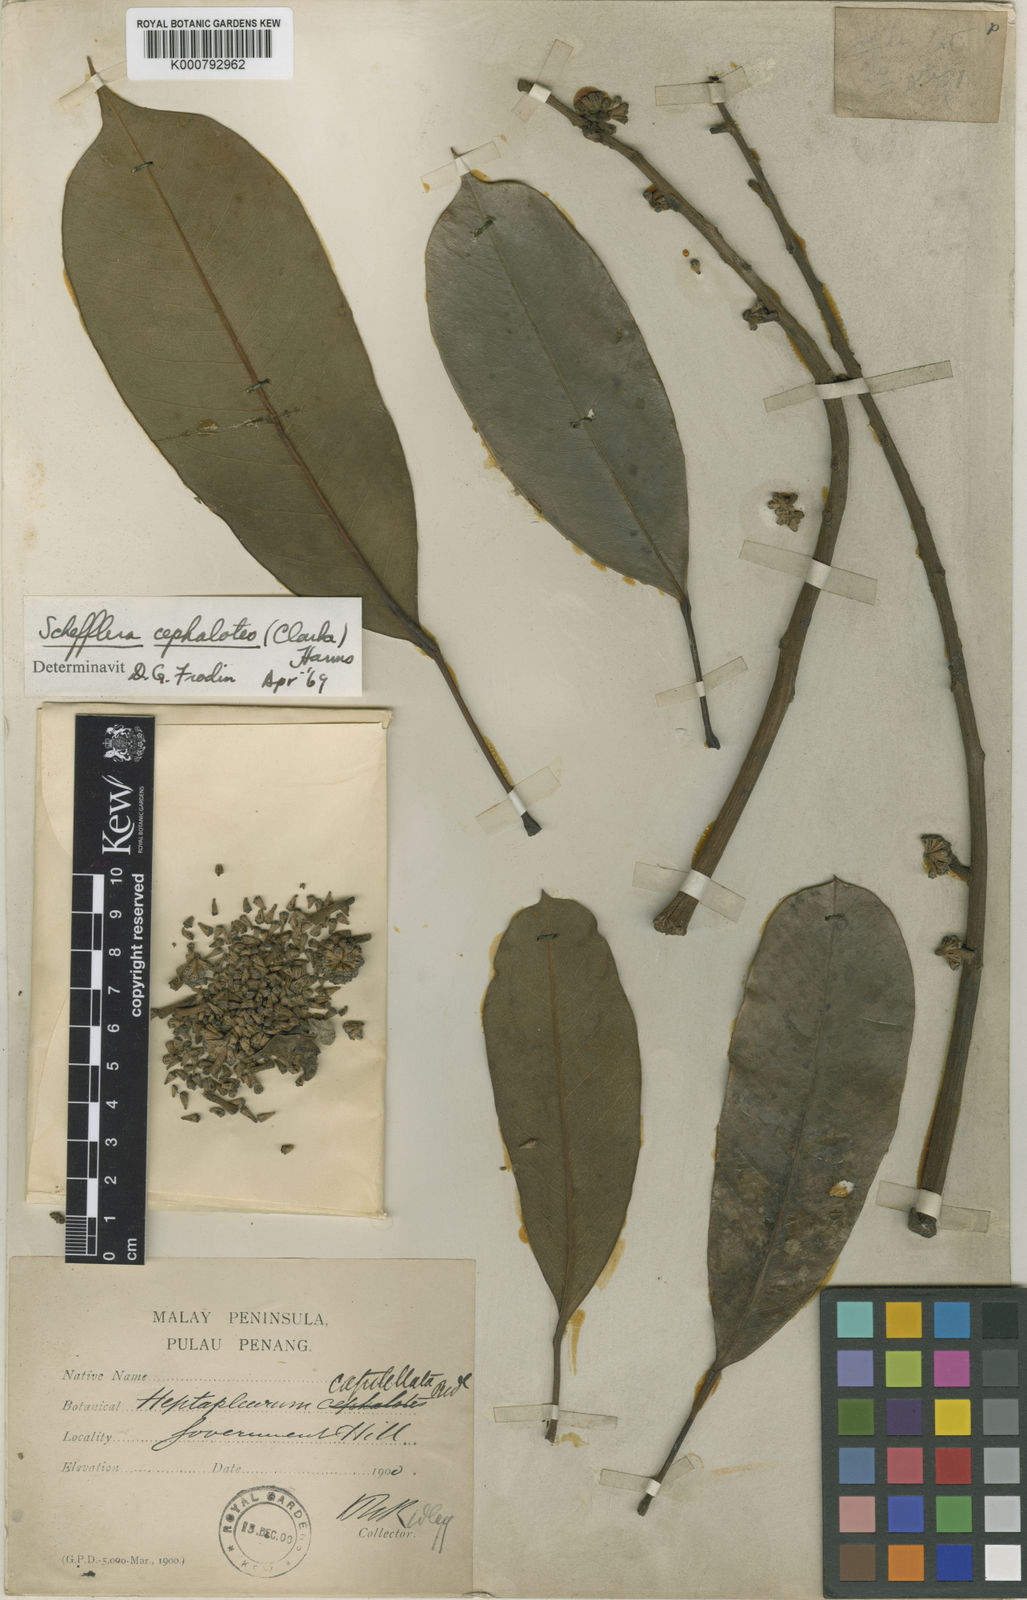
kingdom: Plantae
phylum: Tracheophyta
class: Magnoliopsida
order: Apiales
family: Araliaceae
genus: Heptapleurum
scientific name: Heptapleurum cephalotes
